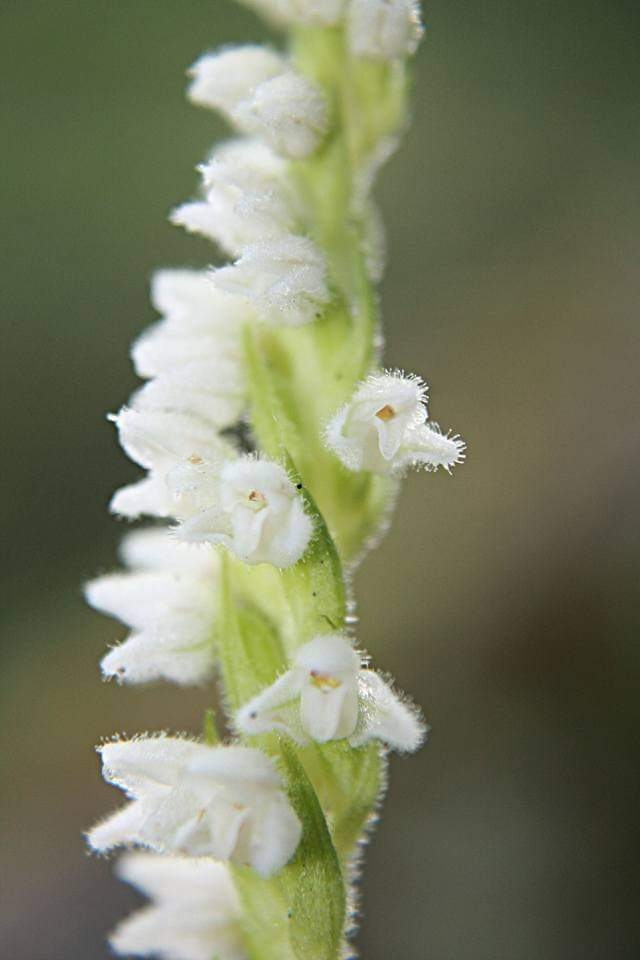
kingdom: Plantae
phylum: Tracheophyta
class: Liliopsida
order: Asparagales
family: Orchidaceae
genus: Goodyera
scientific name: Goodyera repens
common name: Knærod
